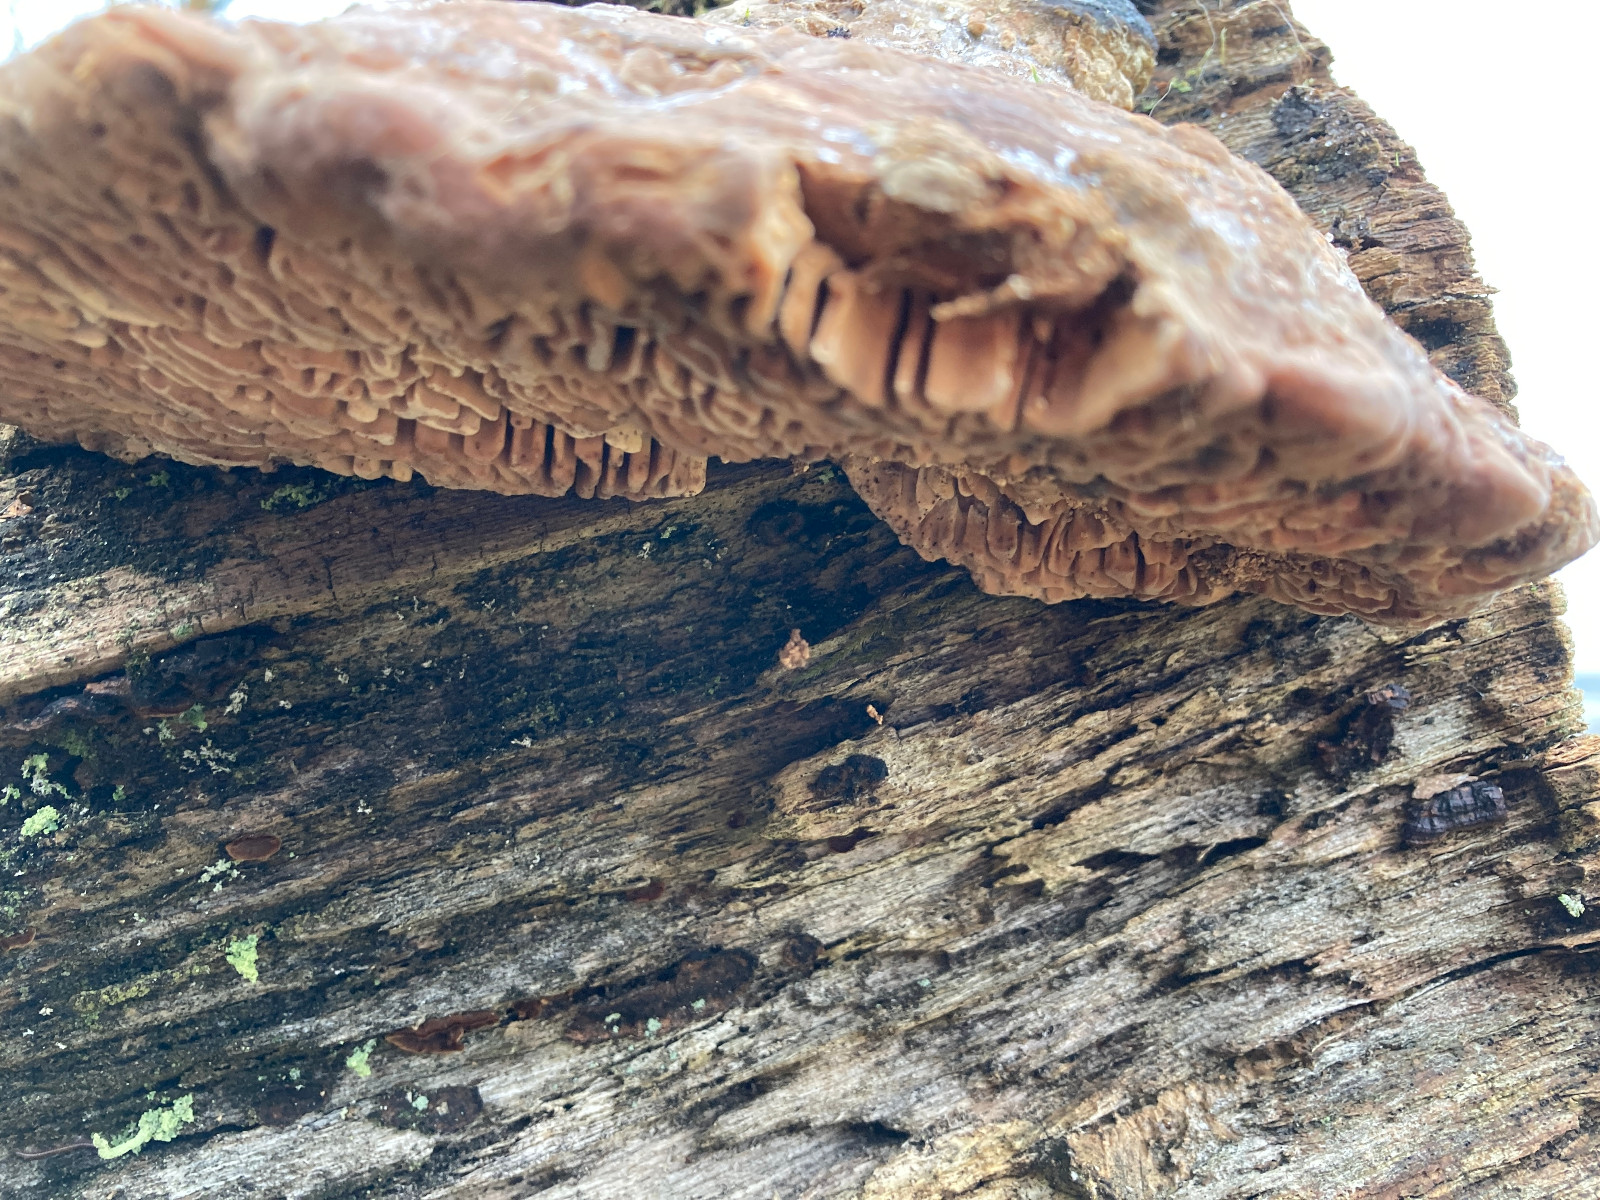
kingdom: Fungi
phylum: Basidiomycota
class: Agaricomycetes
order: Polyporales
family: Fomitopsidaceae
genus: Daedalea
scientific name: Daedalea quercina
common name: ege-labyrintsvamp
